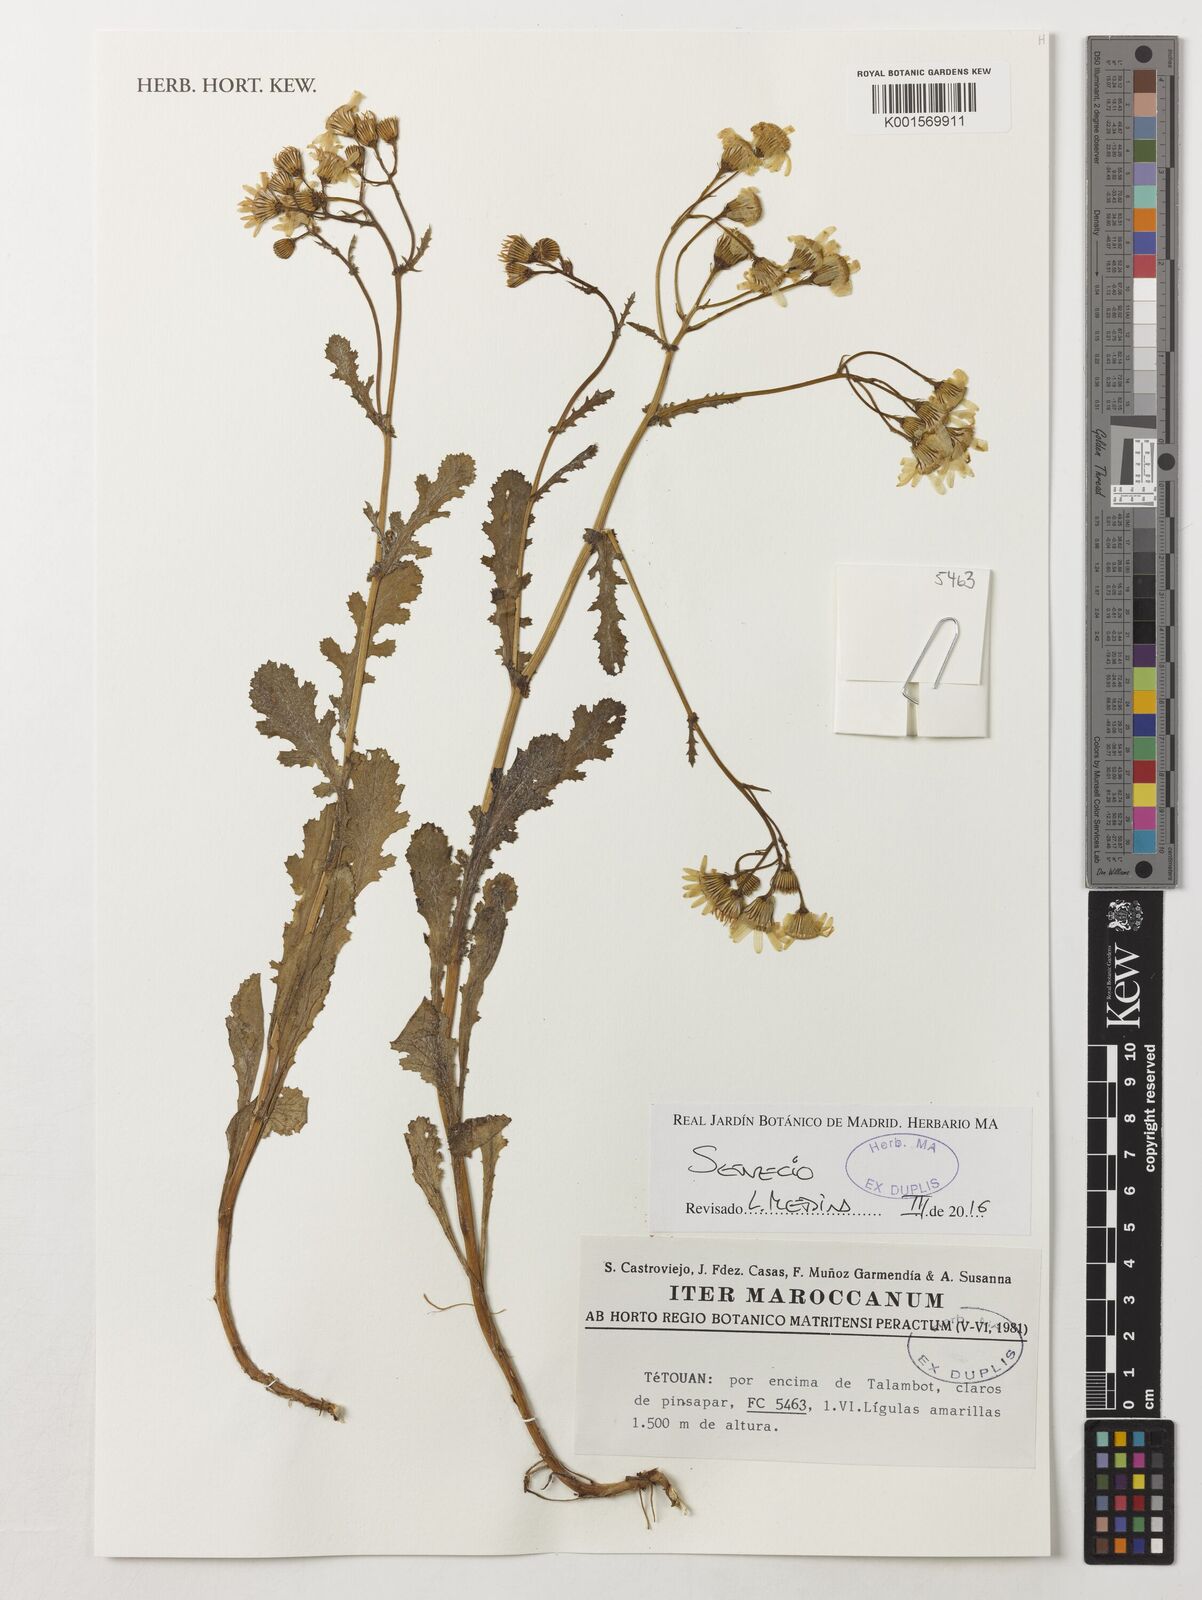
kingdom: Plantae
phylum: Tracheophyta
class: Magnoliopsida
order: Asterales
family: Asteraceae
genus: Senecio
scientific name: Senecio
